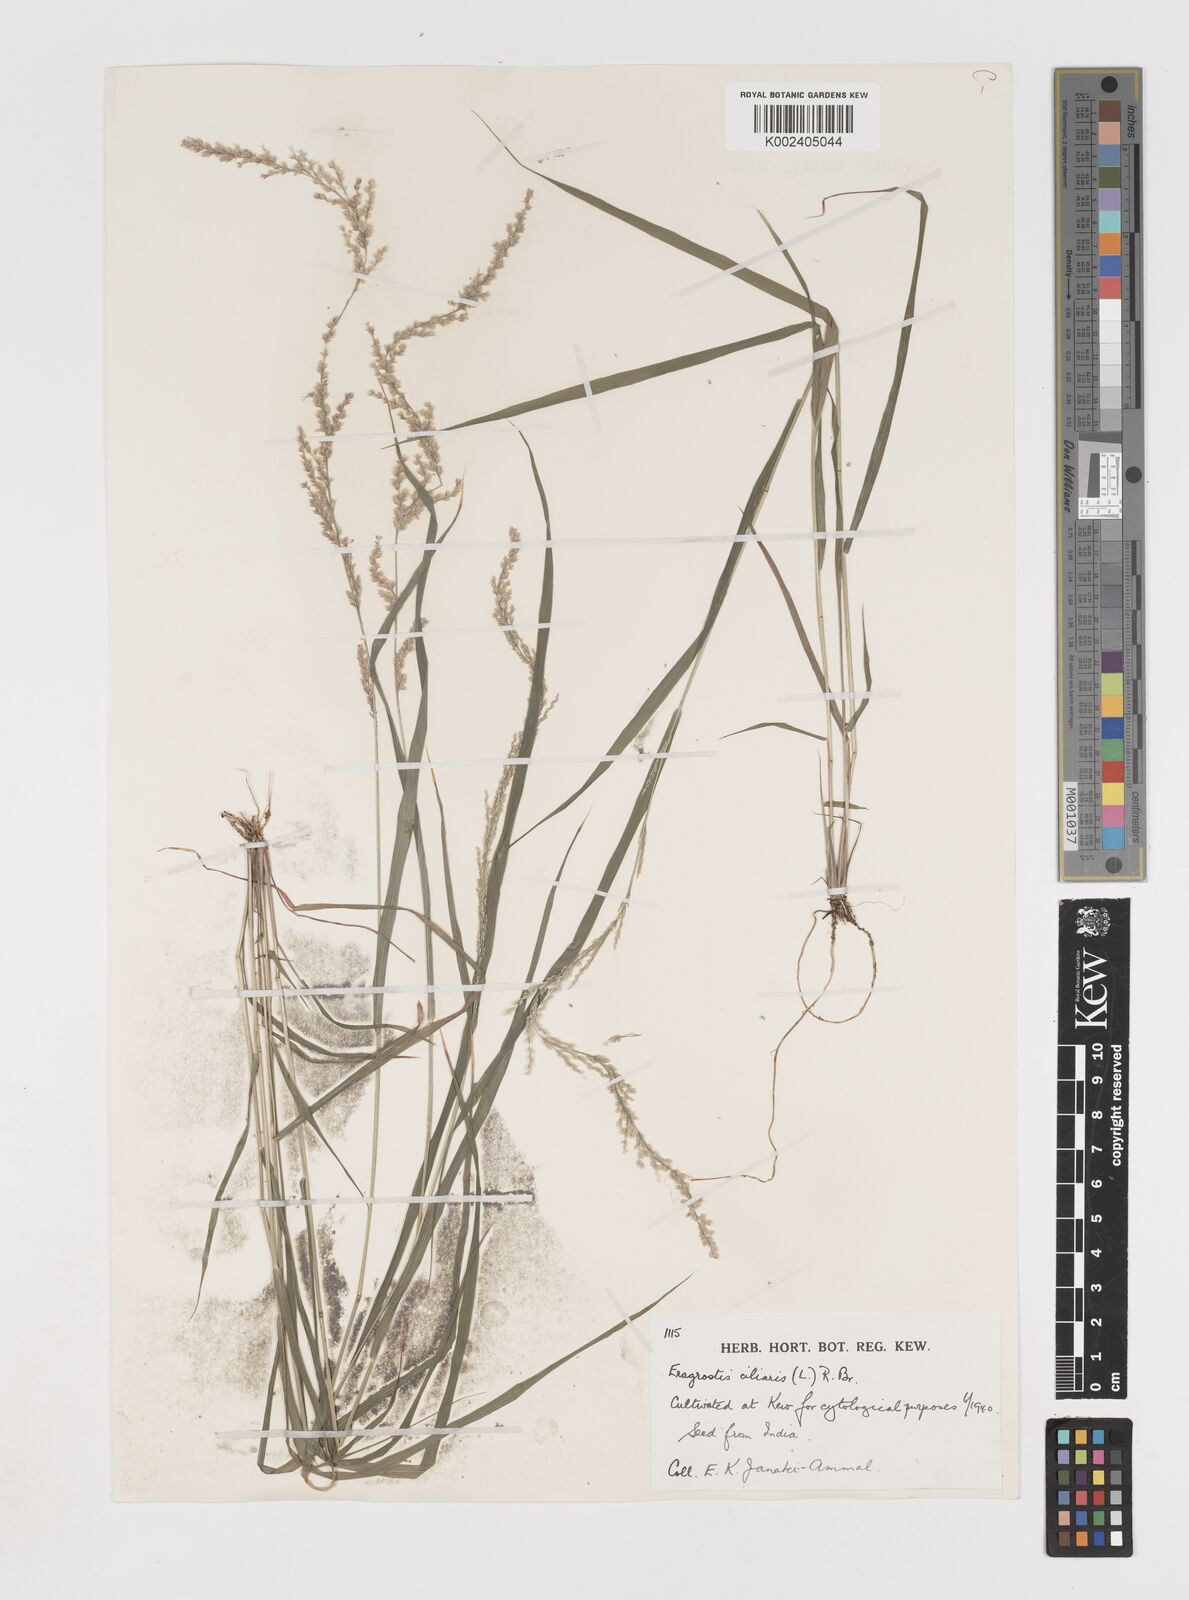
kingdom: Plantae
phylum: Tracheophyta
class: Liliopsida
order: Poales
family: Poaceae
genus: Eragrostis
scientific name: Eragrostis ciliaris
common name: Gophertail lovegrass
